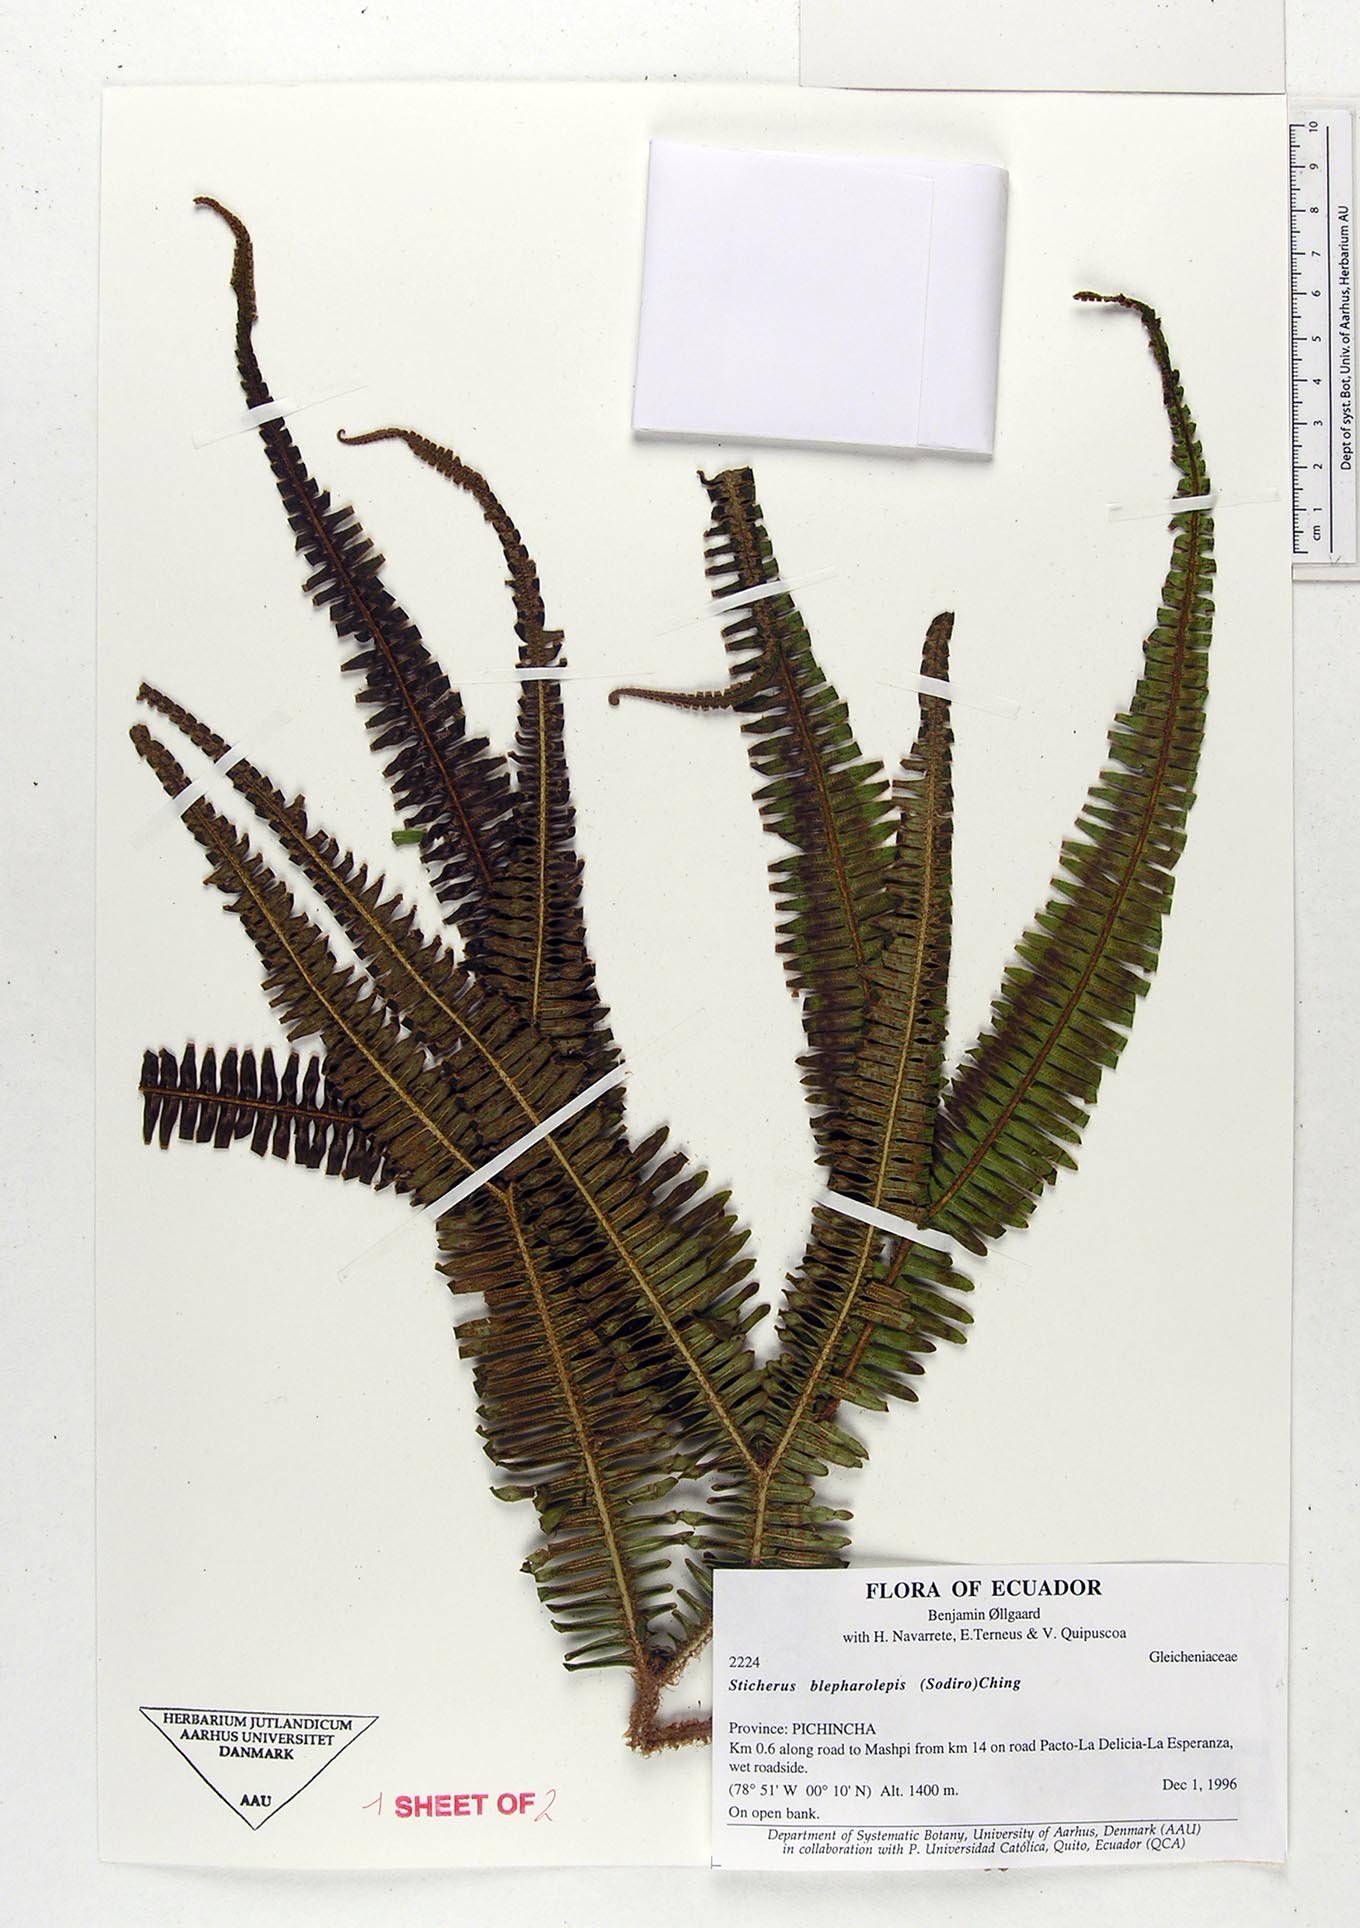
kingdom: Plantae
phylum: Tracheophyta
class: Polypodiopsida
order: Gleicheniales
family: Gleicheniaceae
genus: Sticherus
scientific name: Sticherus blepharolepis
